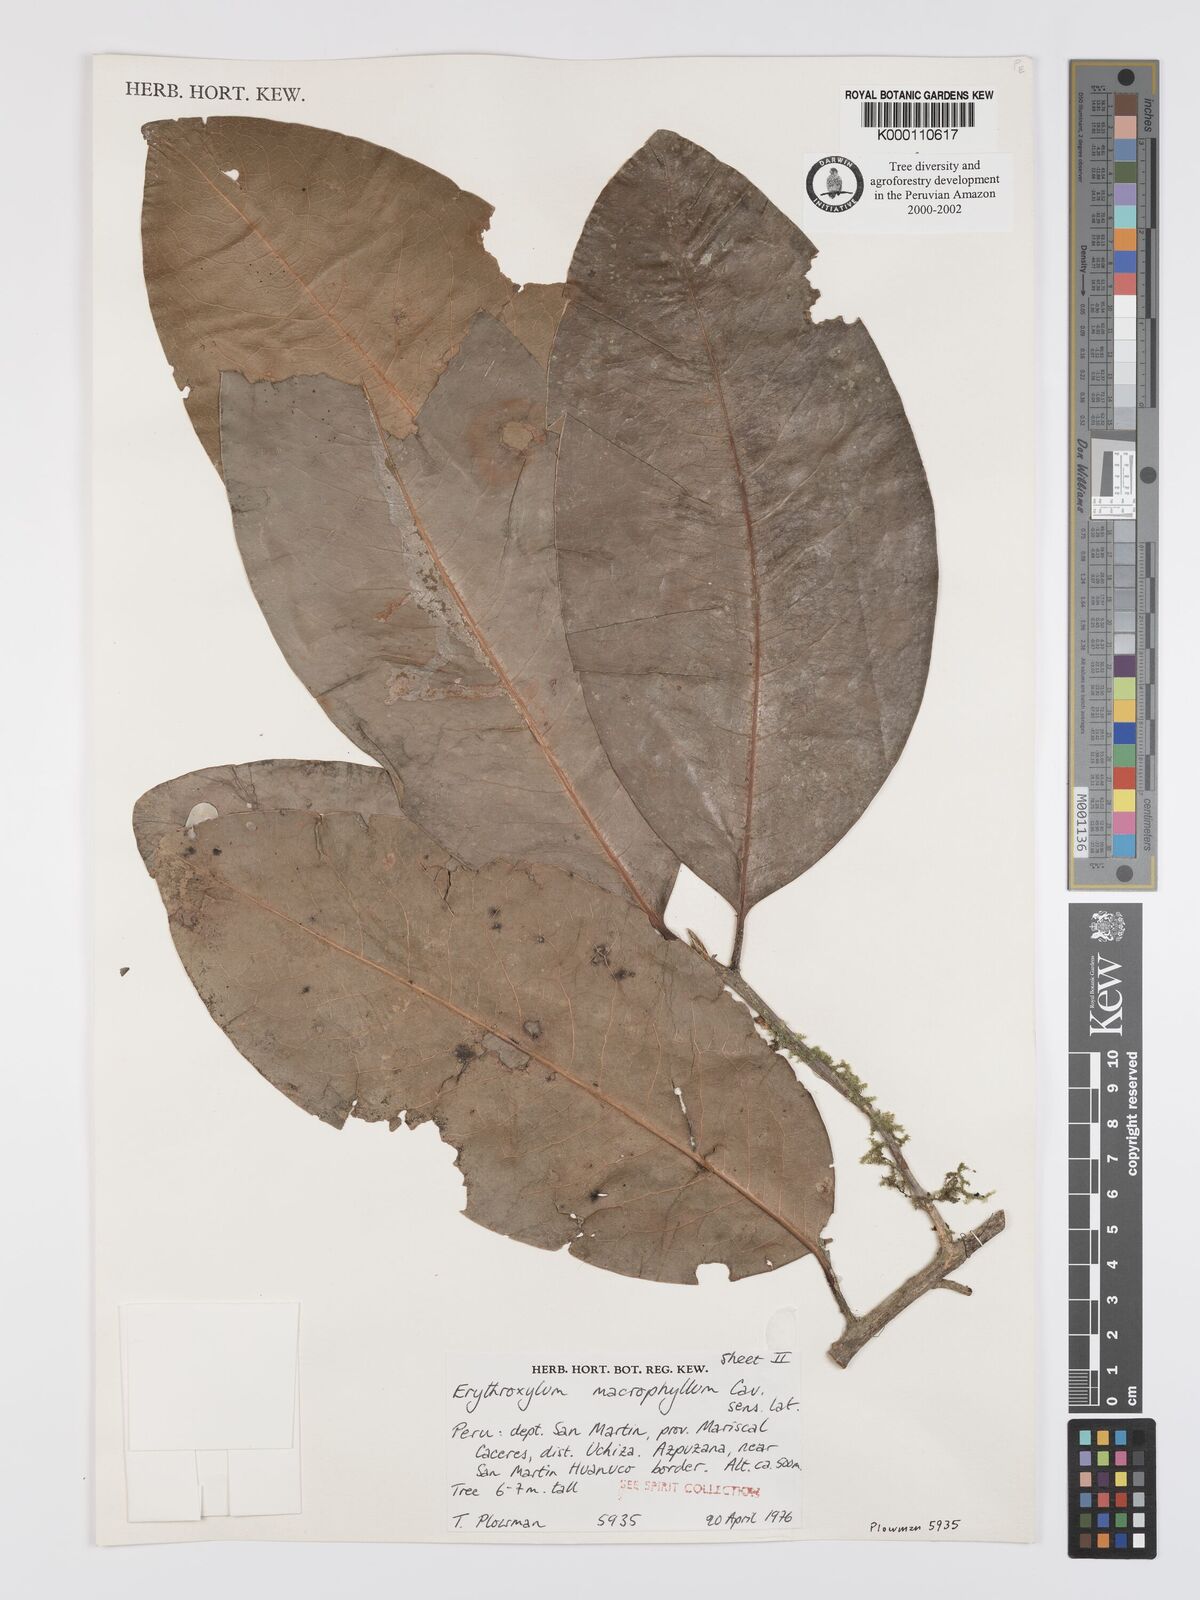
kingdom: Plantae
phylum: Tracheophyta
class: Magnoliopsida
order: Malpighiales
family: Erythroxylaceae
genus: Erythroxylum
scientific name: Erythroxylum
